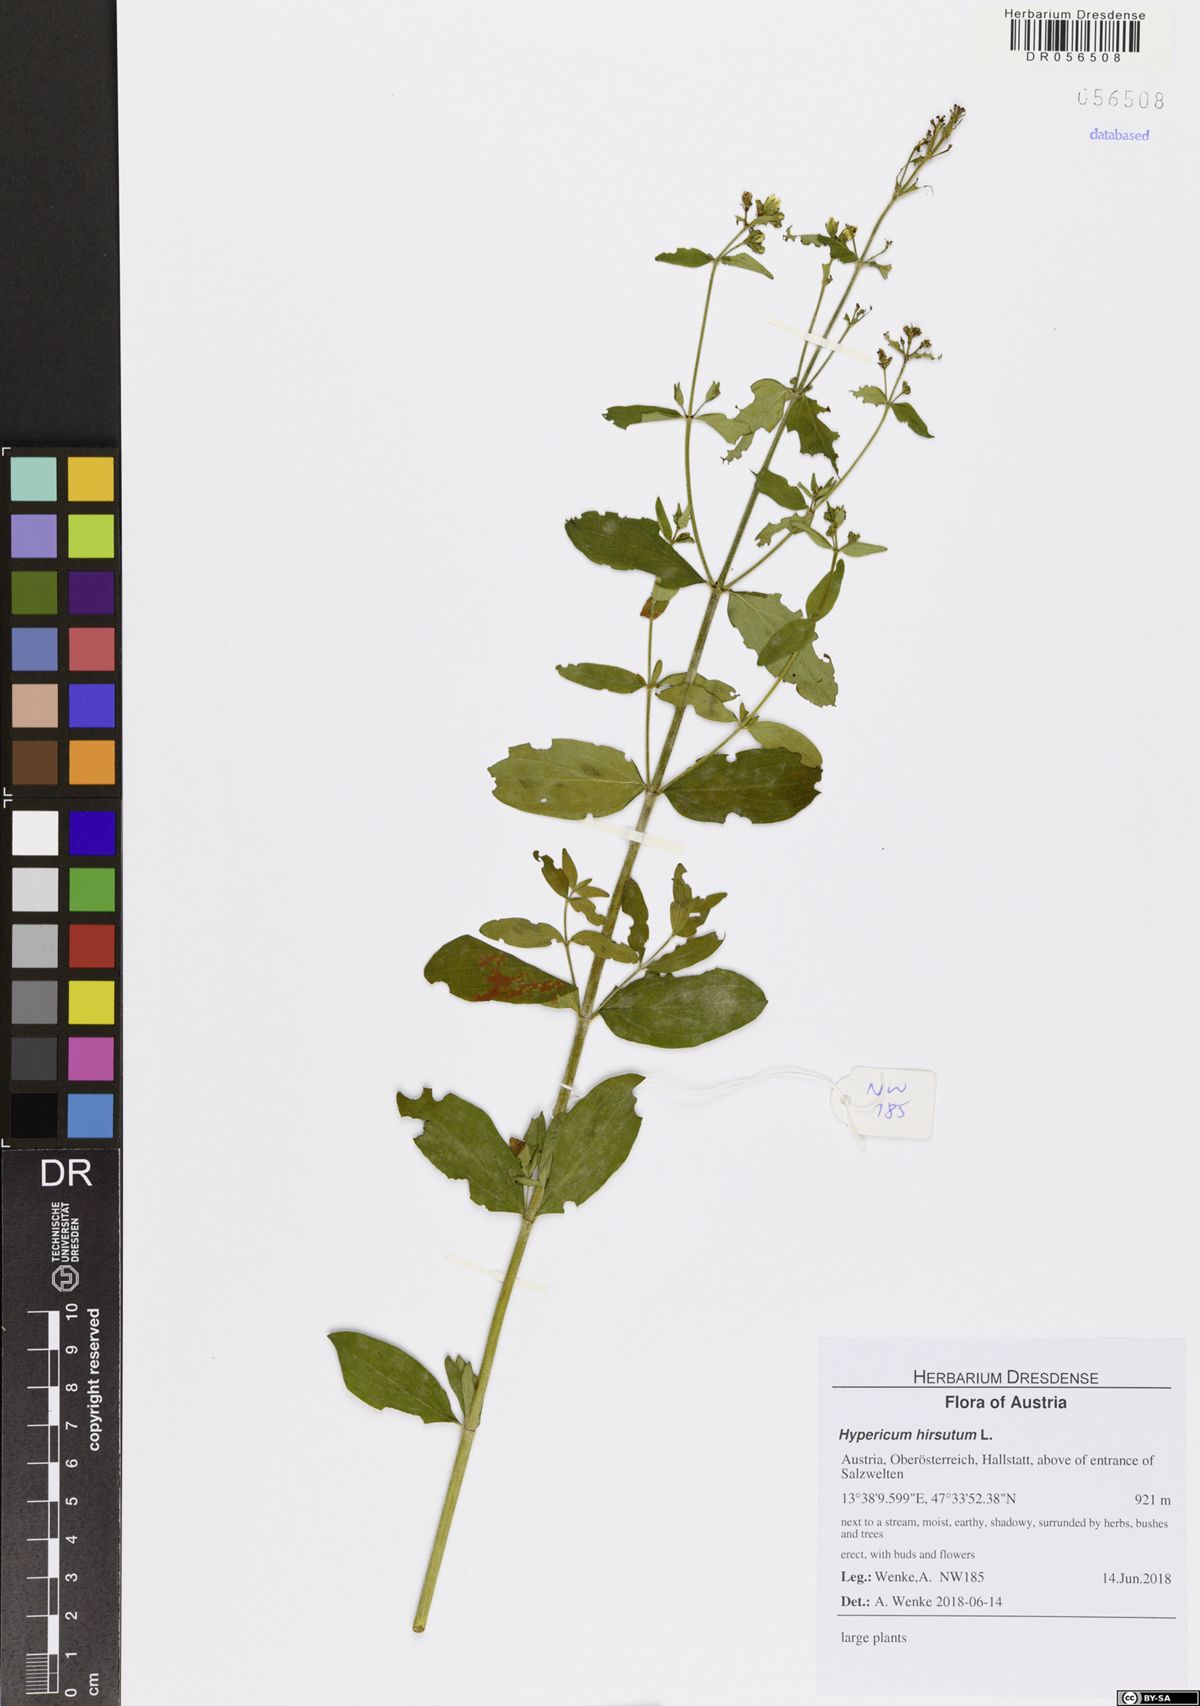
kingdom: Plantae
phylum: Tracheophyta
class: Magnoliopsida
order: Malpighiales
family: Hypericaceae
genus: Hypericum
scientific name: Hypericum hirsutum
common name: Hairy st. john's-wort
